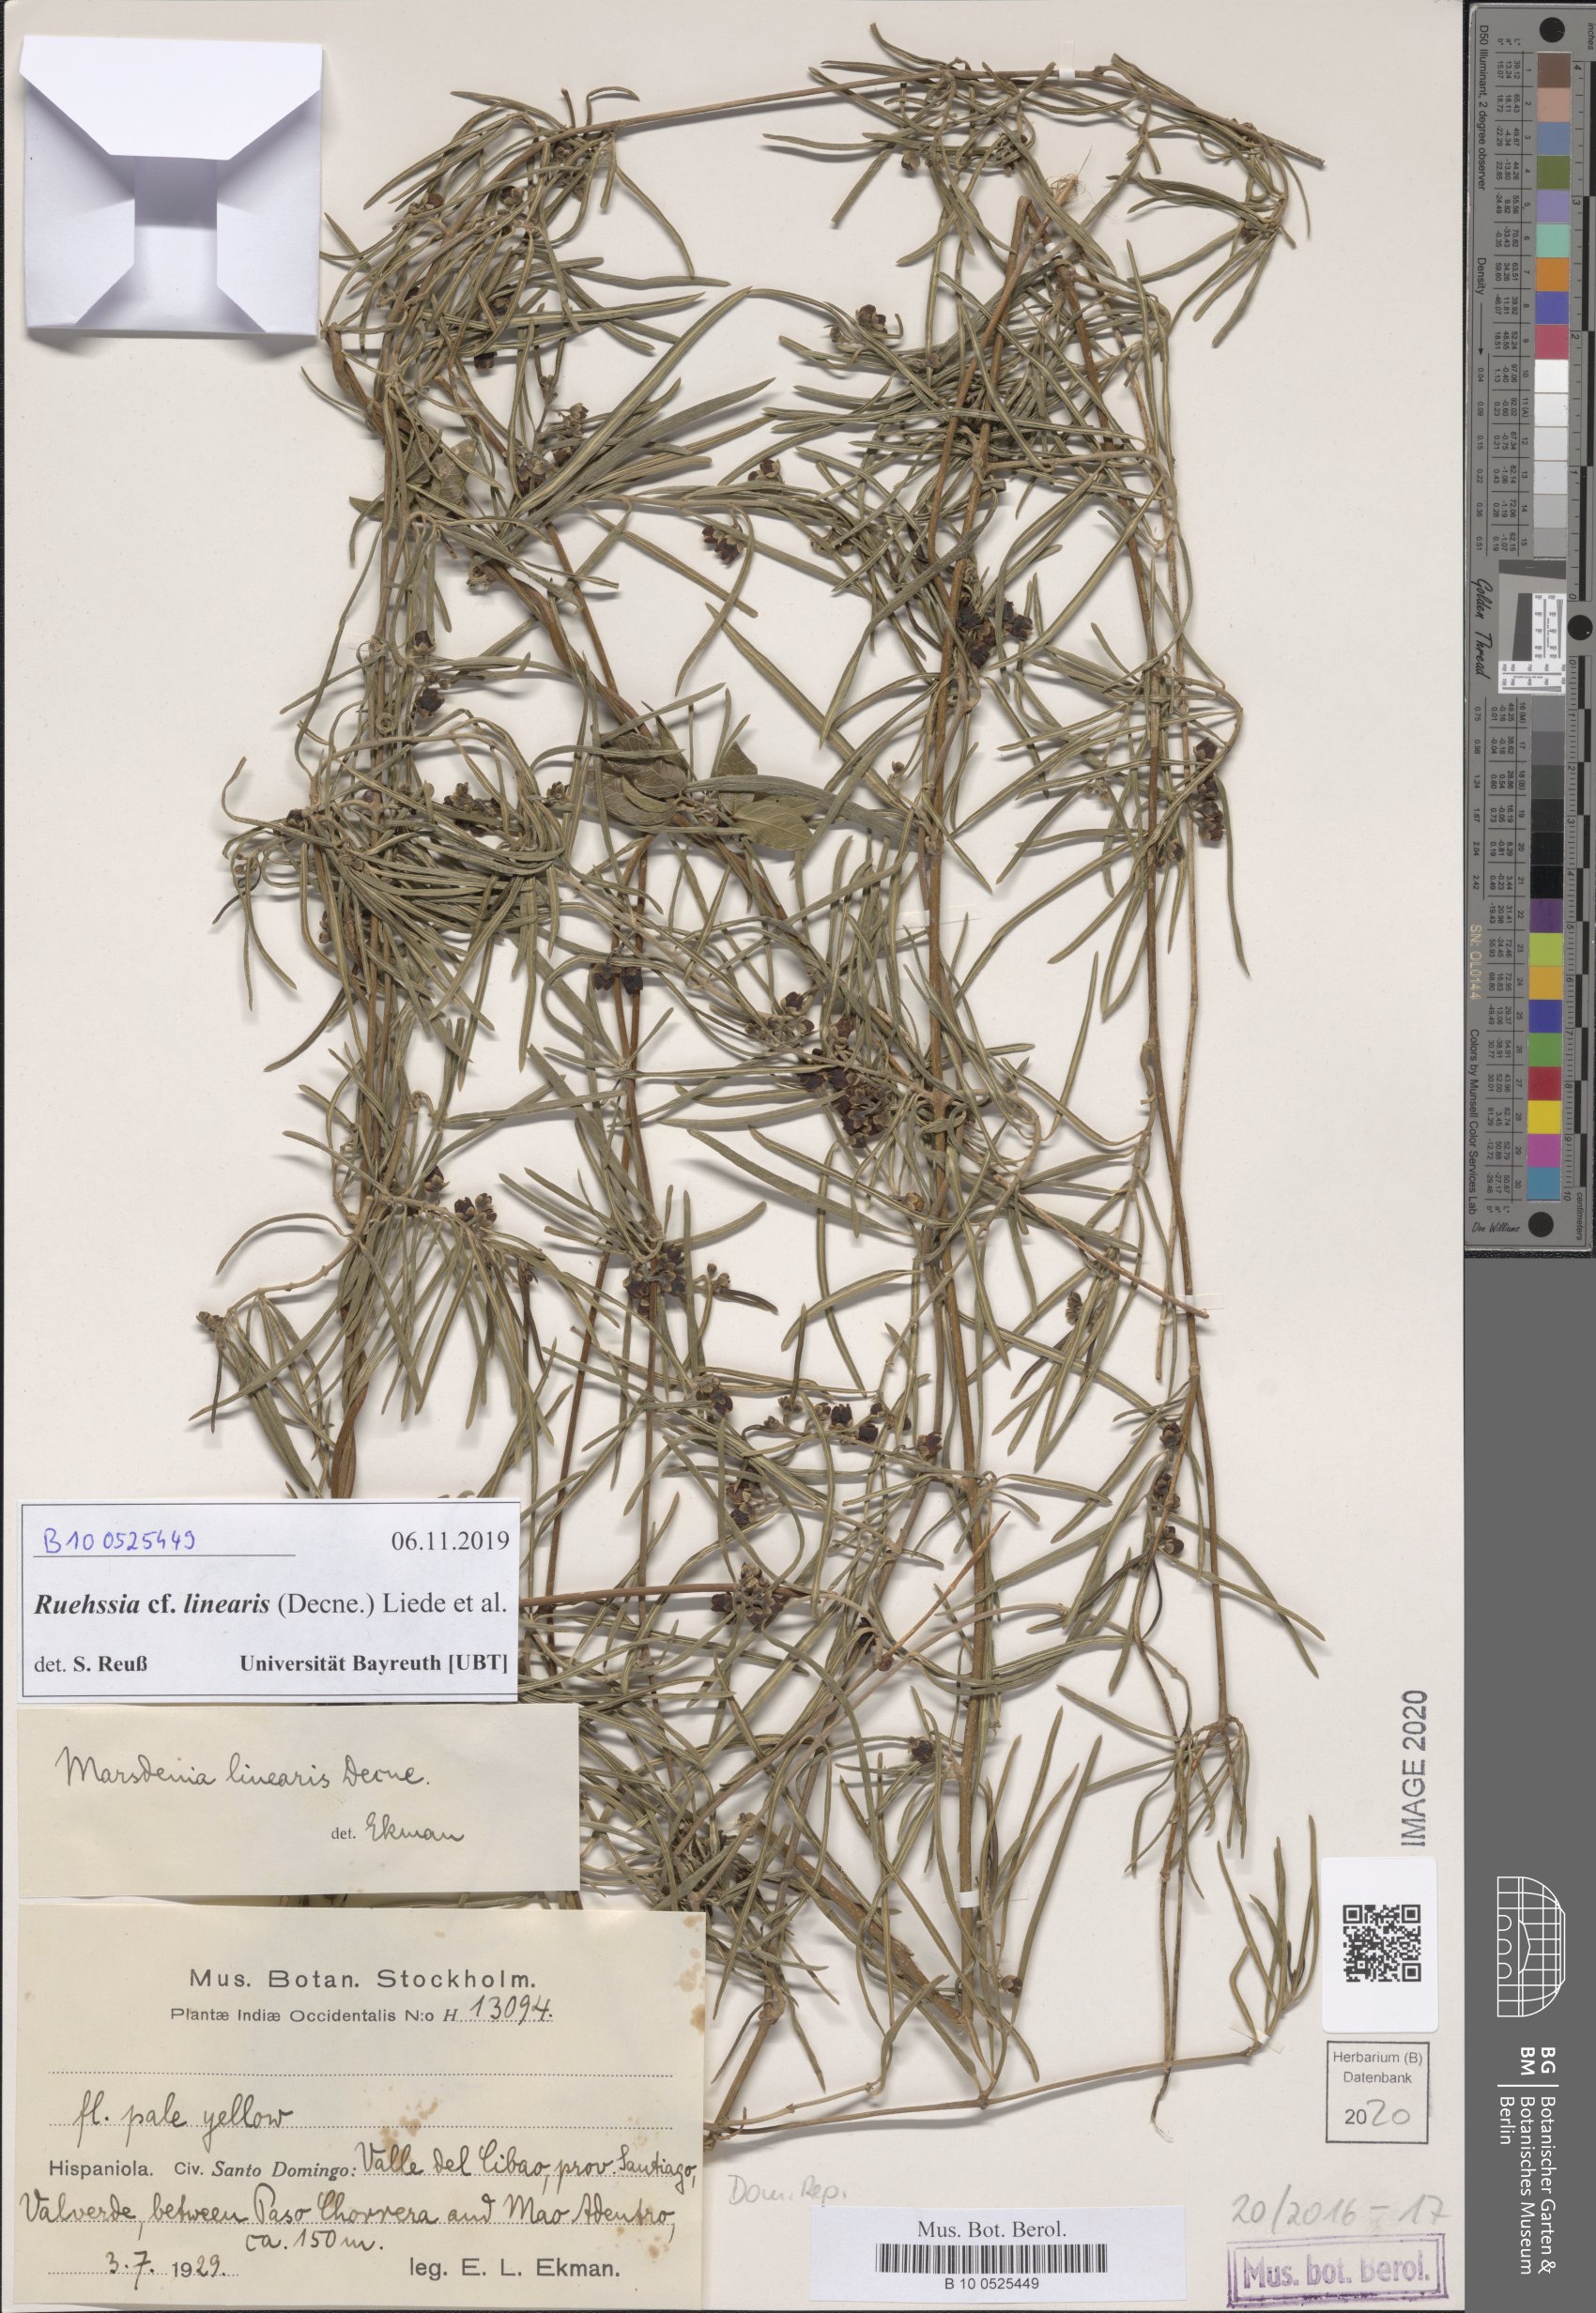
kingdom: Plantae
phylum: Tracheophyta
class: Magnoliopsida
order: Gentianales
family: Apocynaceae
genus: Ruehssia
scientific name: Ruehssia linearis
